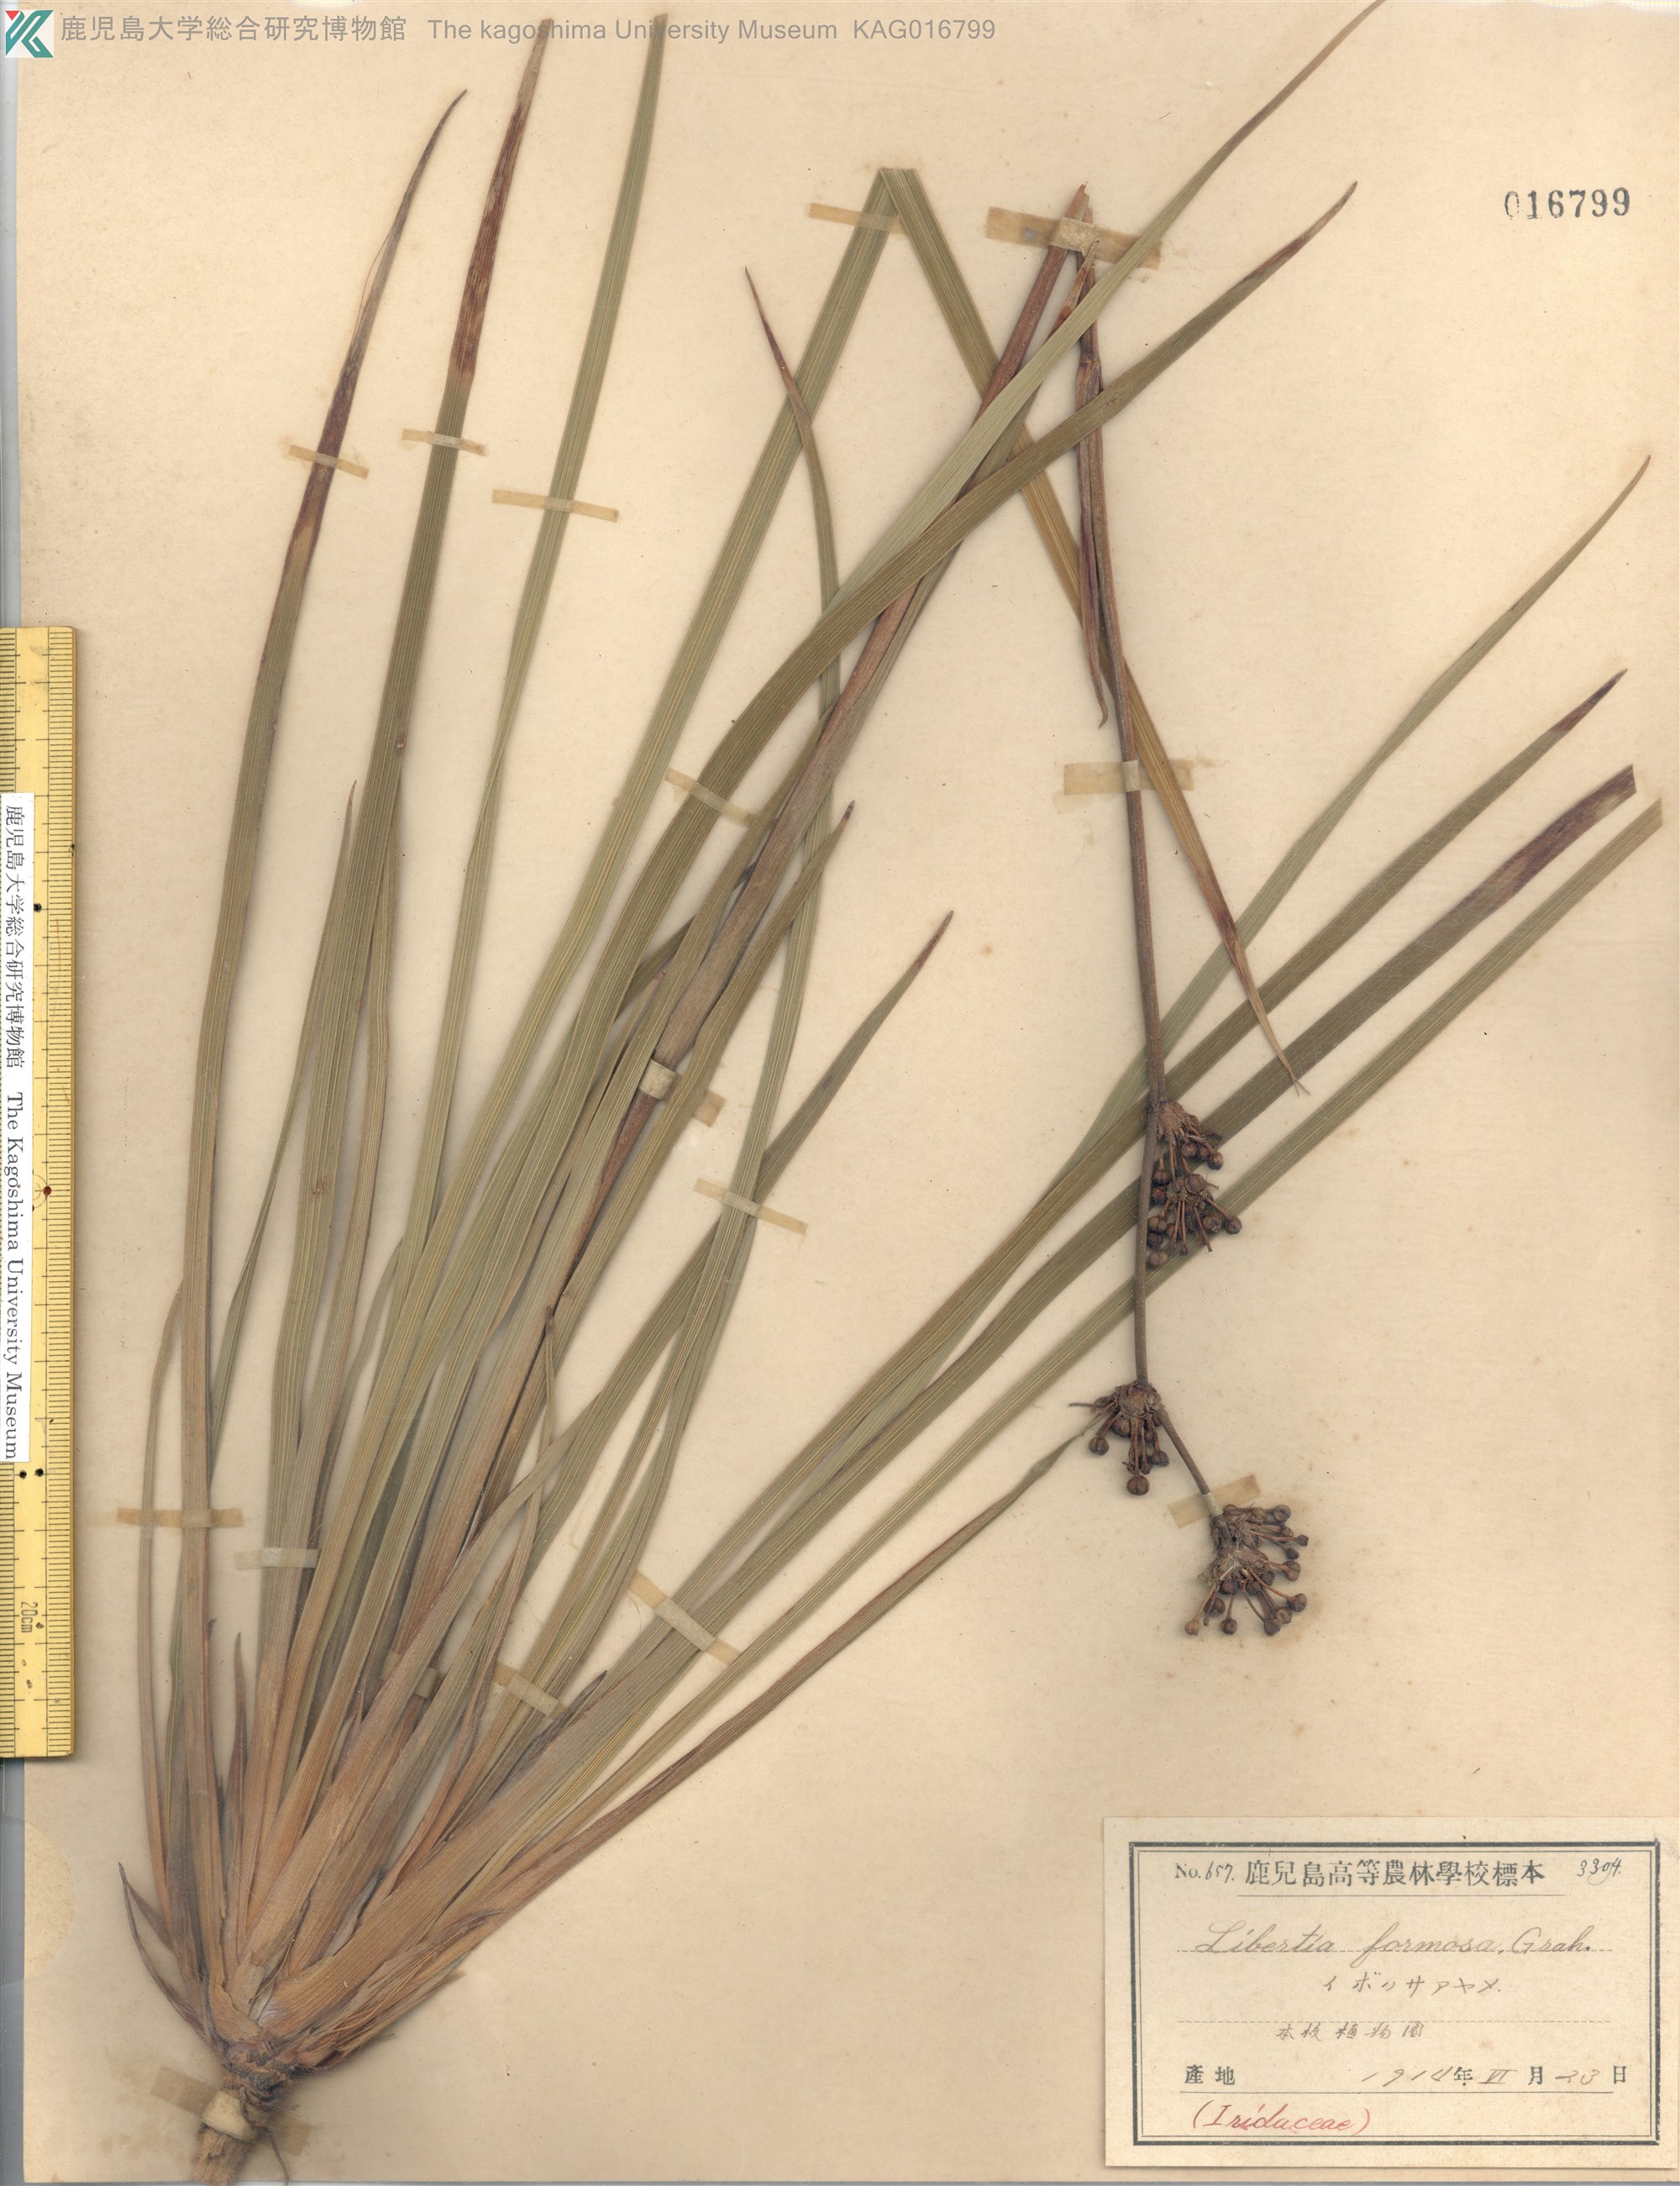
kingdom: Plantae
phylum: Tracheophyta
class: Liliopsida
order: Asparagales
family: Iridaceae
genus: Libertia
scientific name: Libertia chilensis
